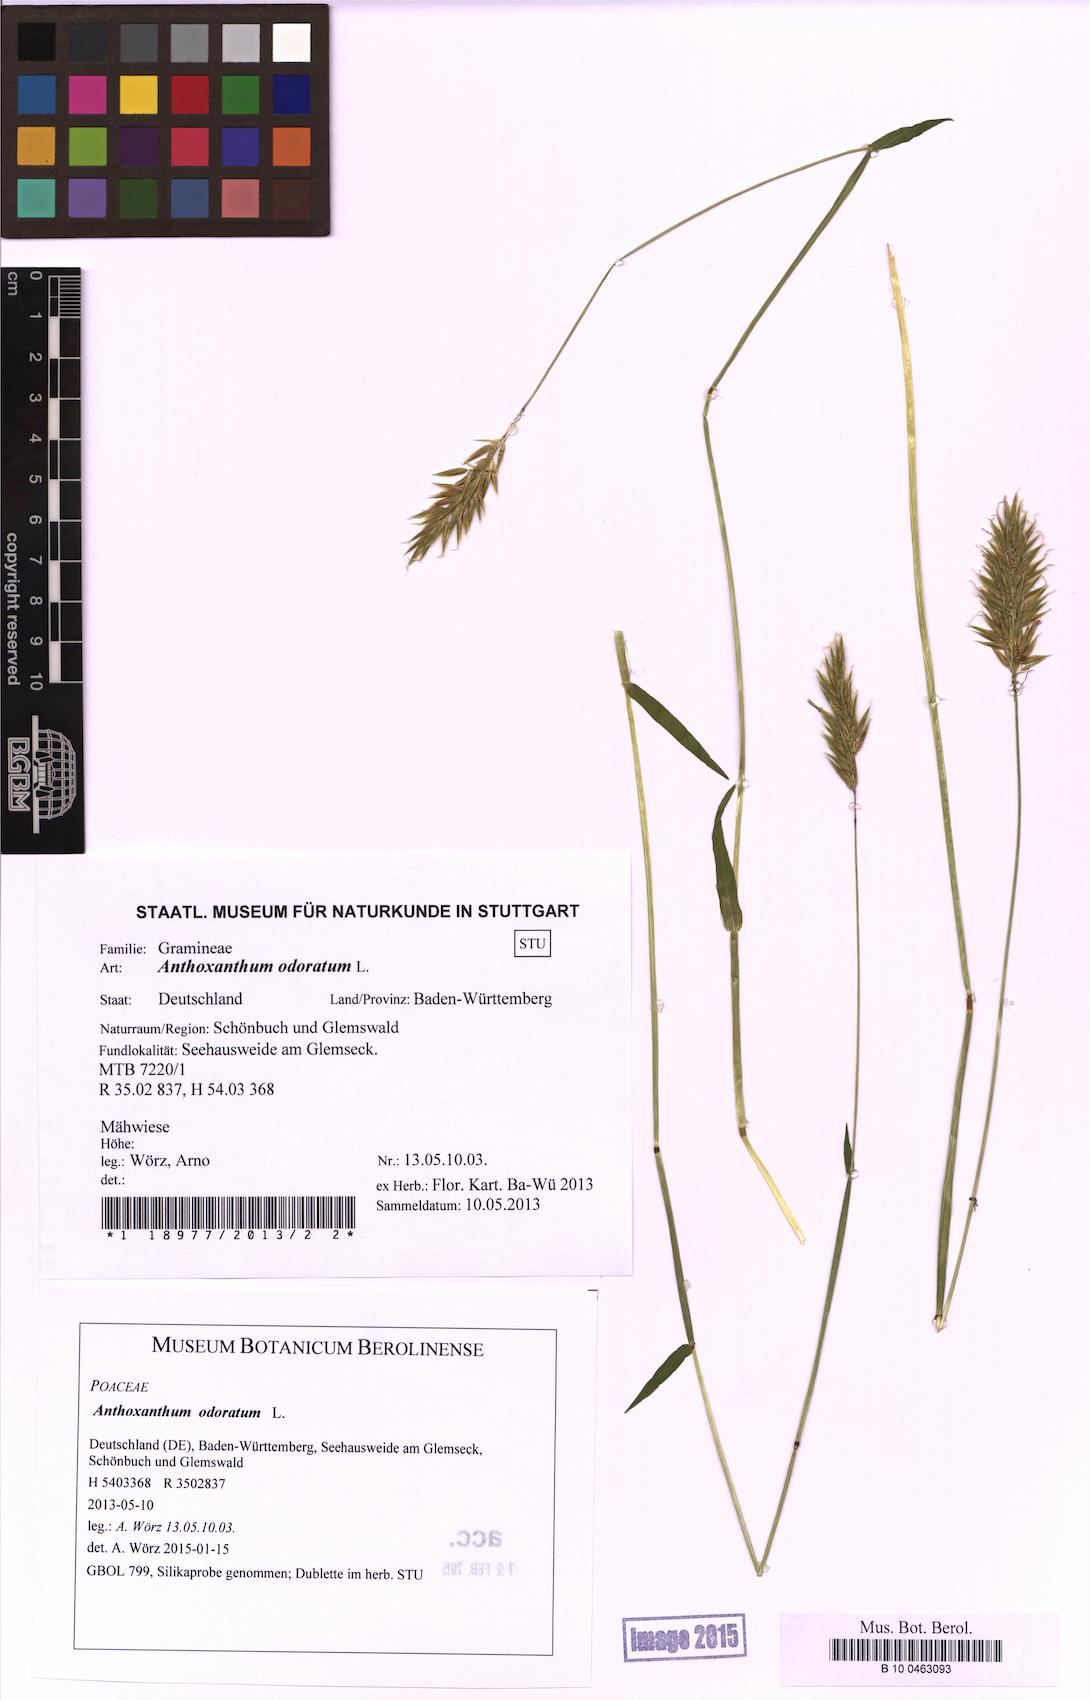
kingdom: Plantae
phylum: Tracheophyta
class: Liliopsida
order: Poales
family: Poaceae
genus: Anthoxanthum
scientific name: Anthoxanthum odoratum
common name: Sweet vernalgrass
